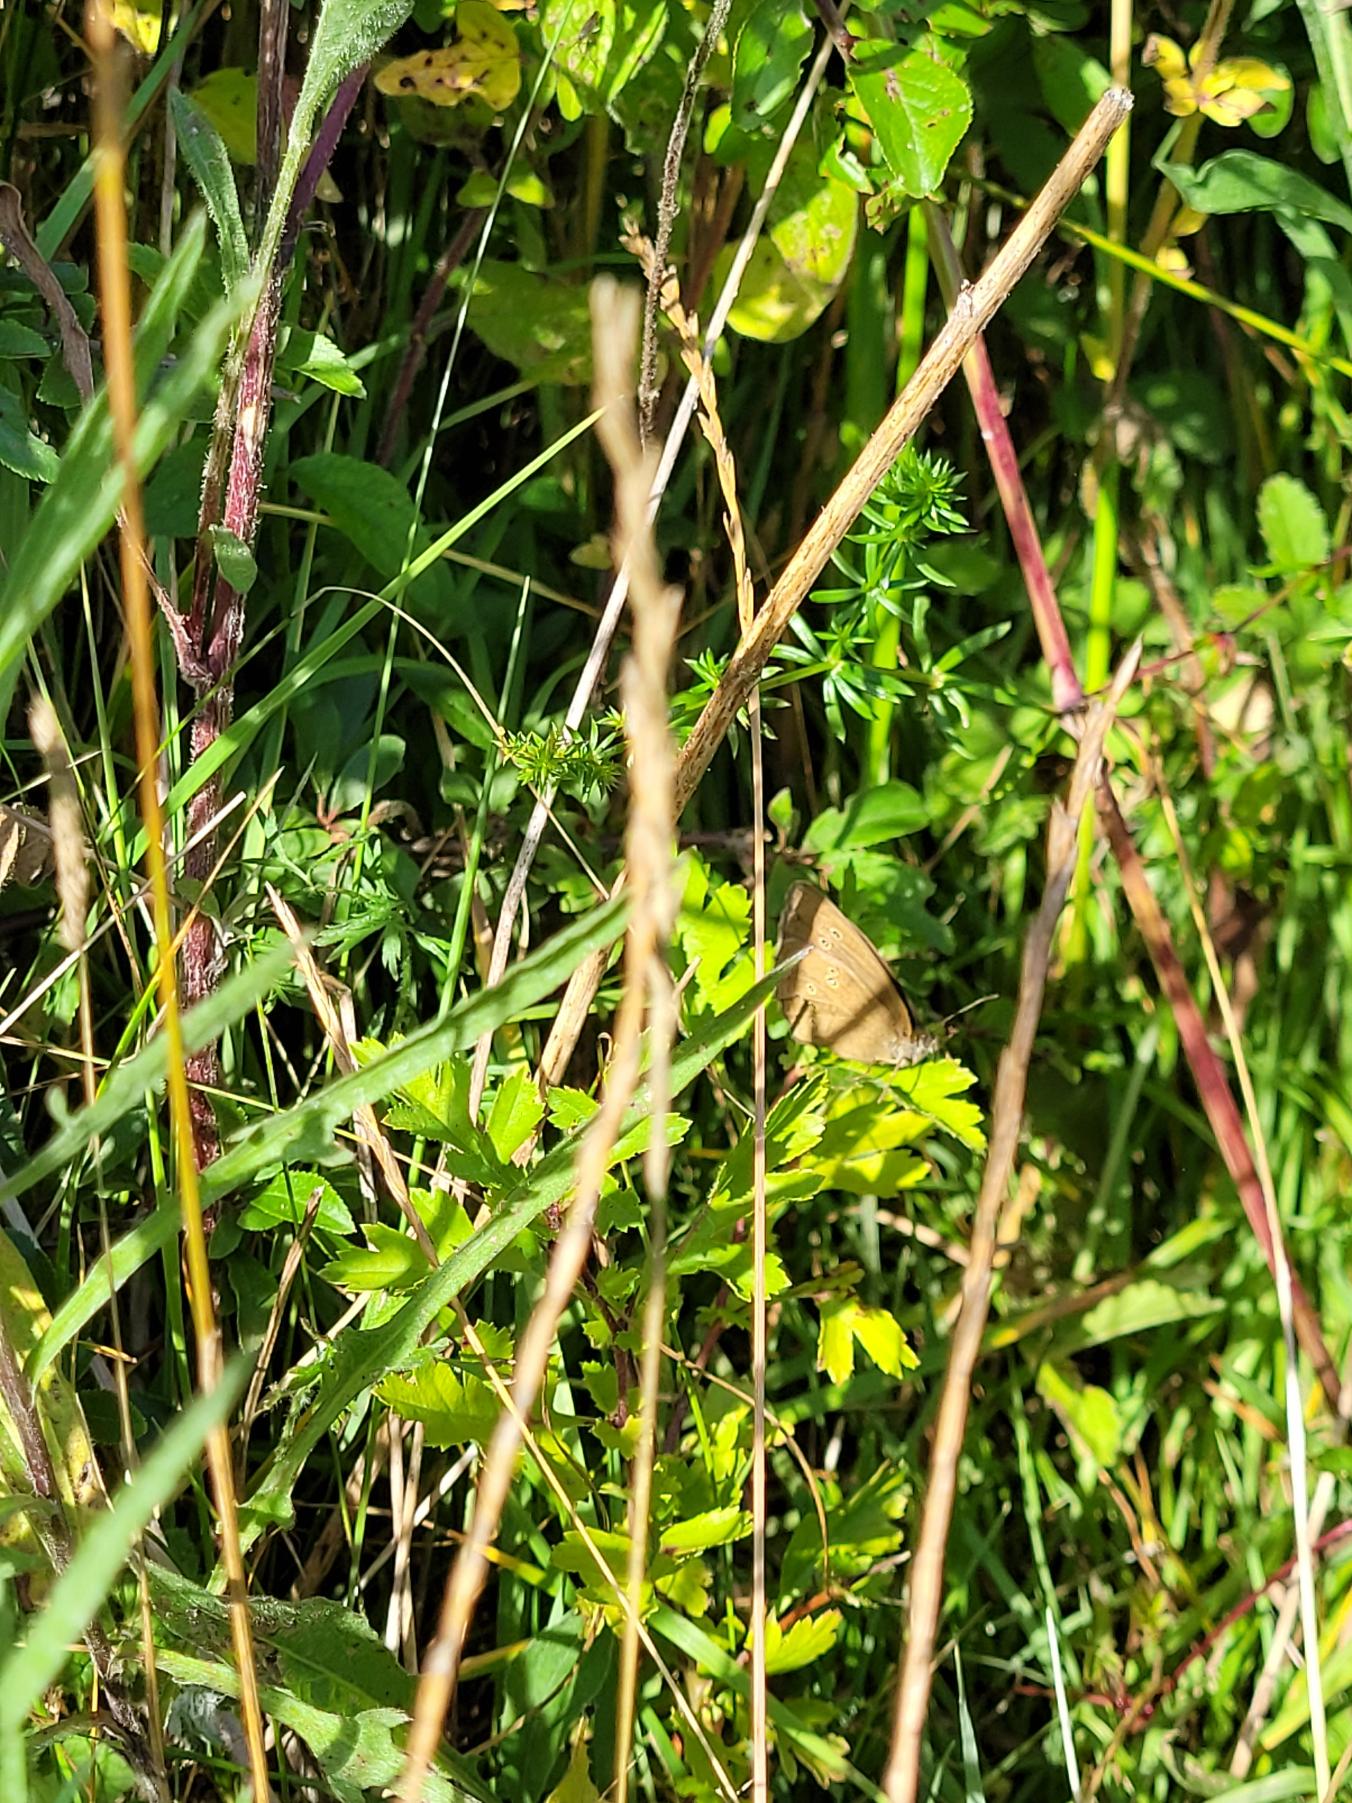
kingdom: Animalia
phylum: Arthropoda
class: Insecta
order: Lepidoptera
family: Nymphalidae
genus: Aphantopus
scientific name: Aphantopus hyperantus
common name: Engrandøje
